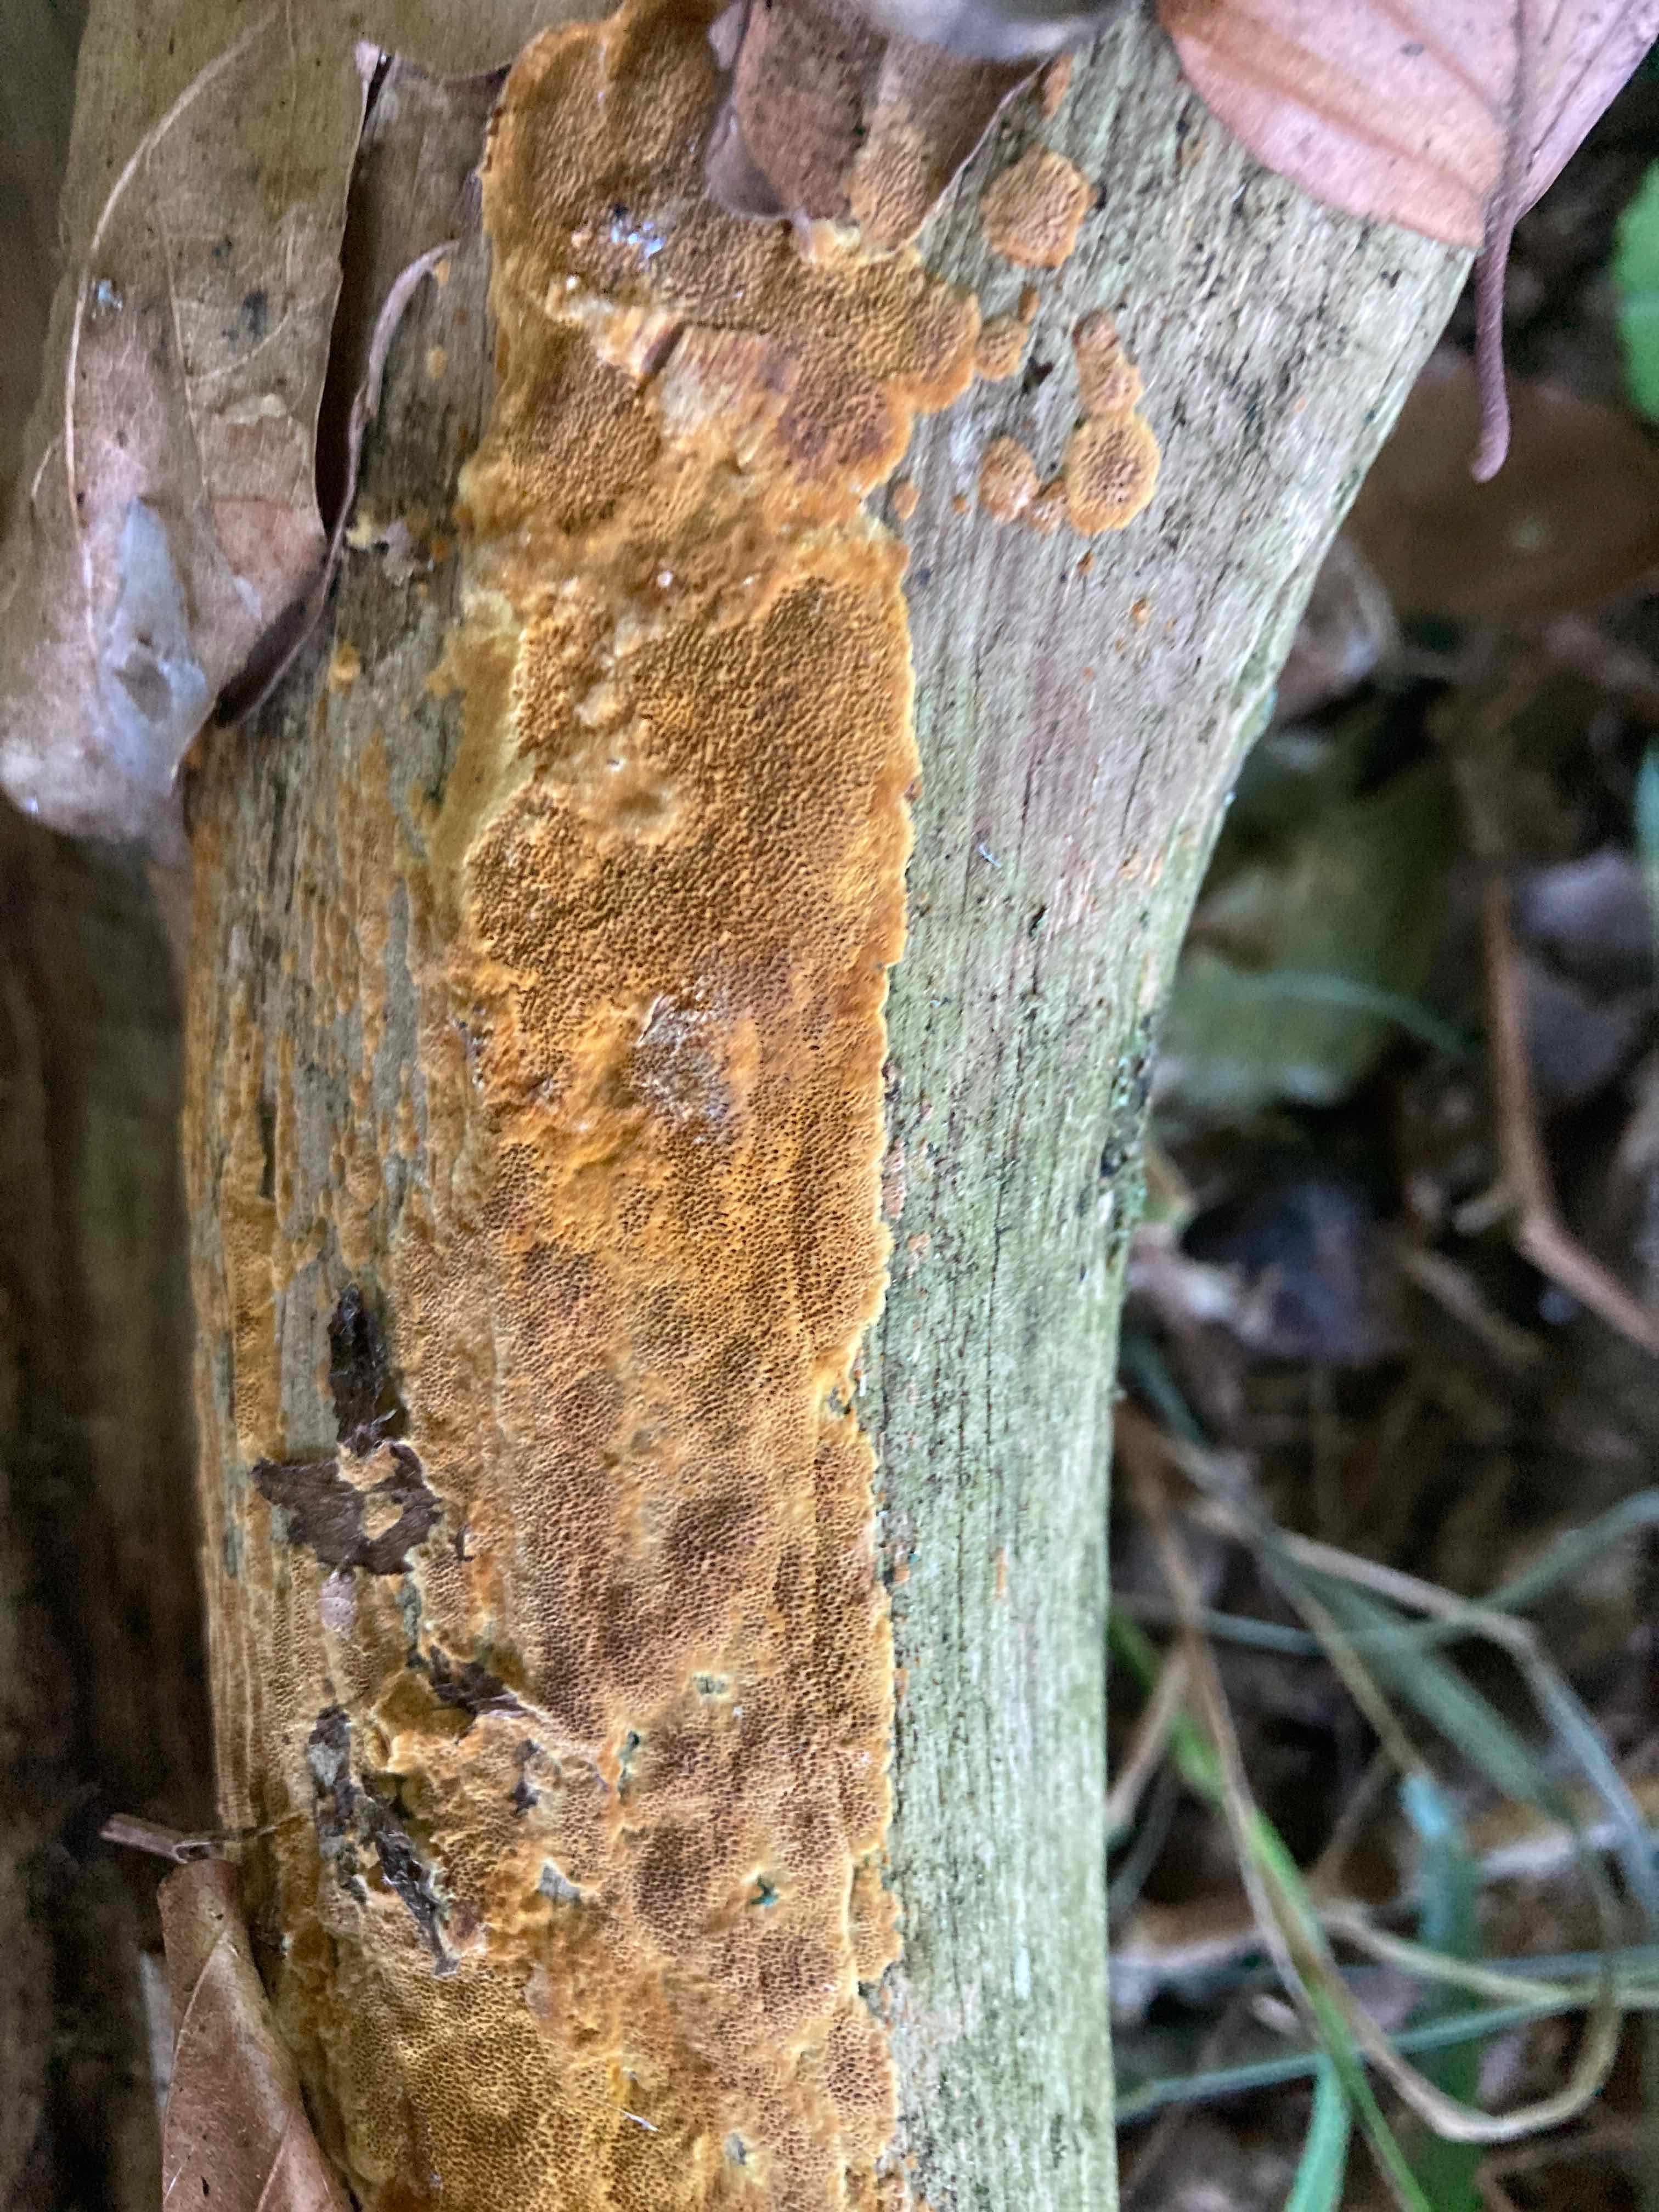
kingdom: Fungi
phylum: Basidiomycota
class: Agaricomycetes
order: Hymenochaetales
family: Hymenochaetaceae
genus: Fuscoporia
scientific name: Fuscoporia ferrea
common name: skorpe-ildporesvamp
